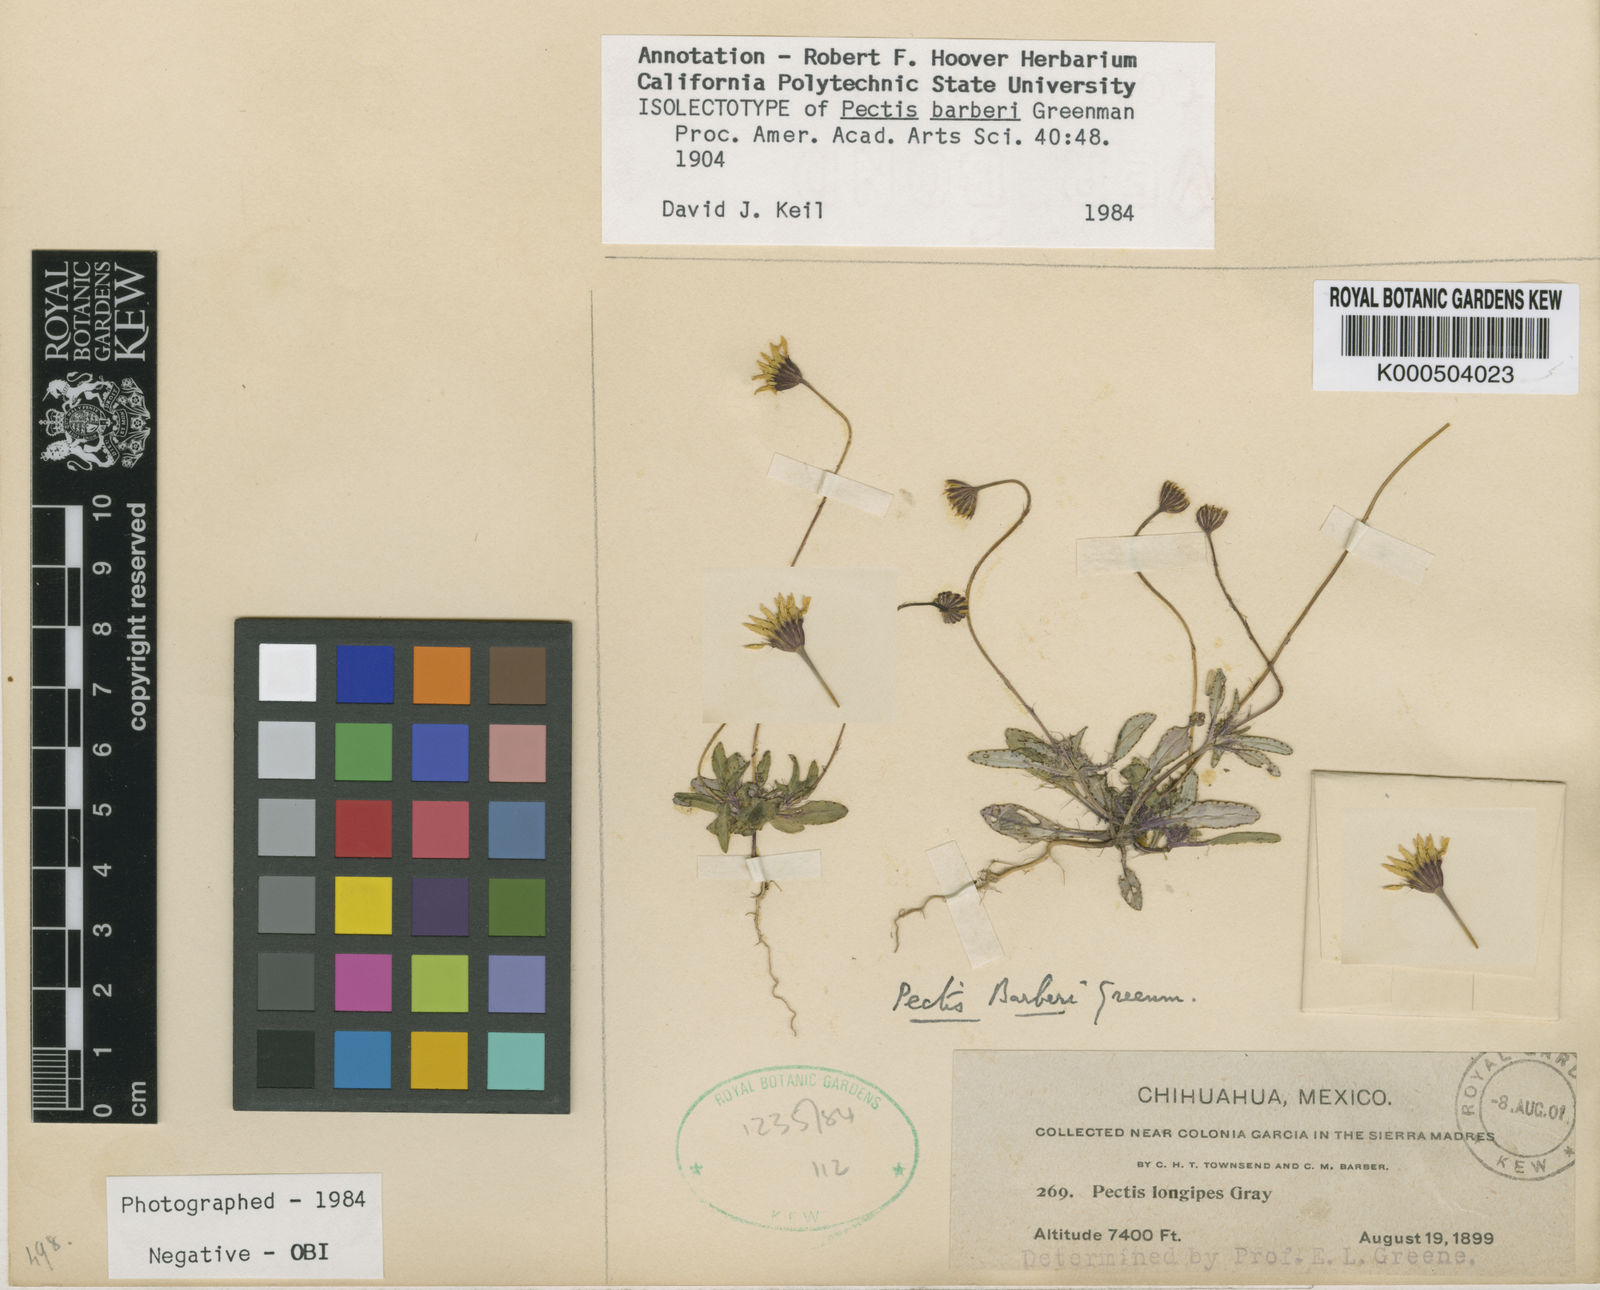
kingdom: Plantae
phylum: Tracheophyta
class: Magnoliopsida
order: Asterales
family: Asteraceae
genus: Pectis
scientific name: Pectis barberi
